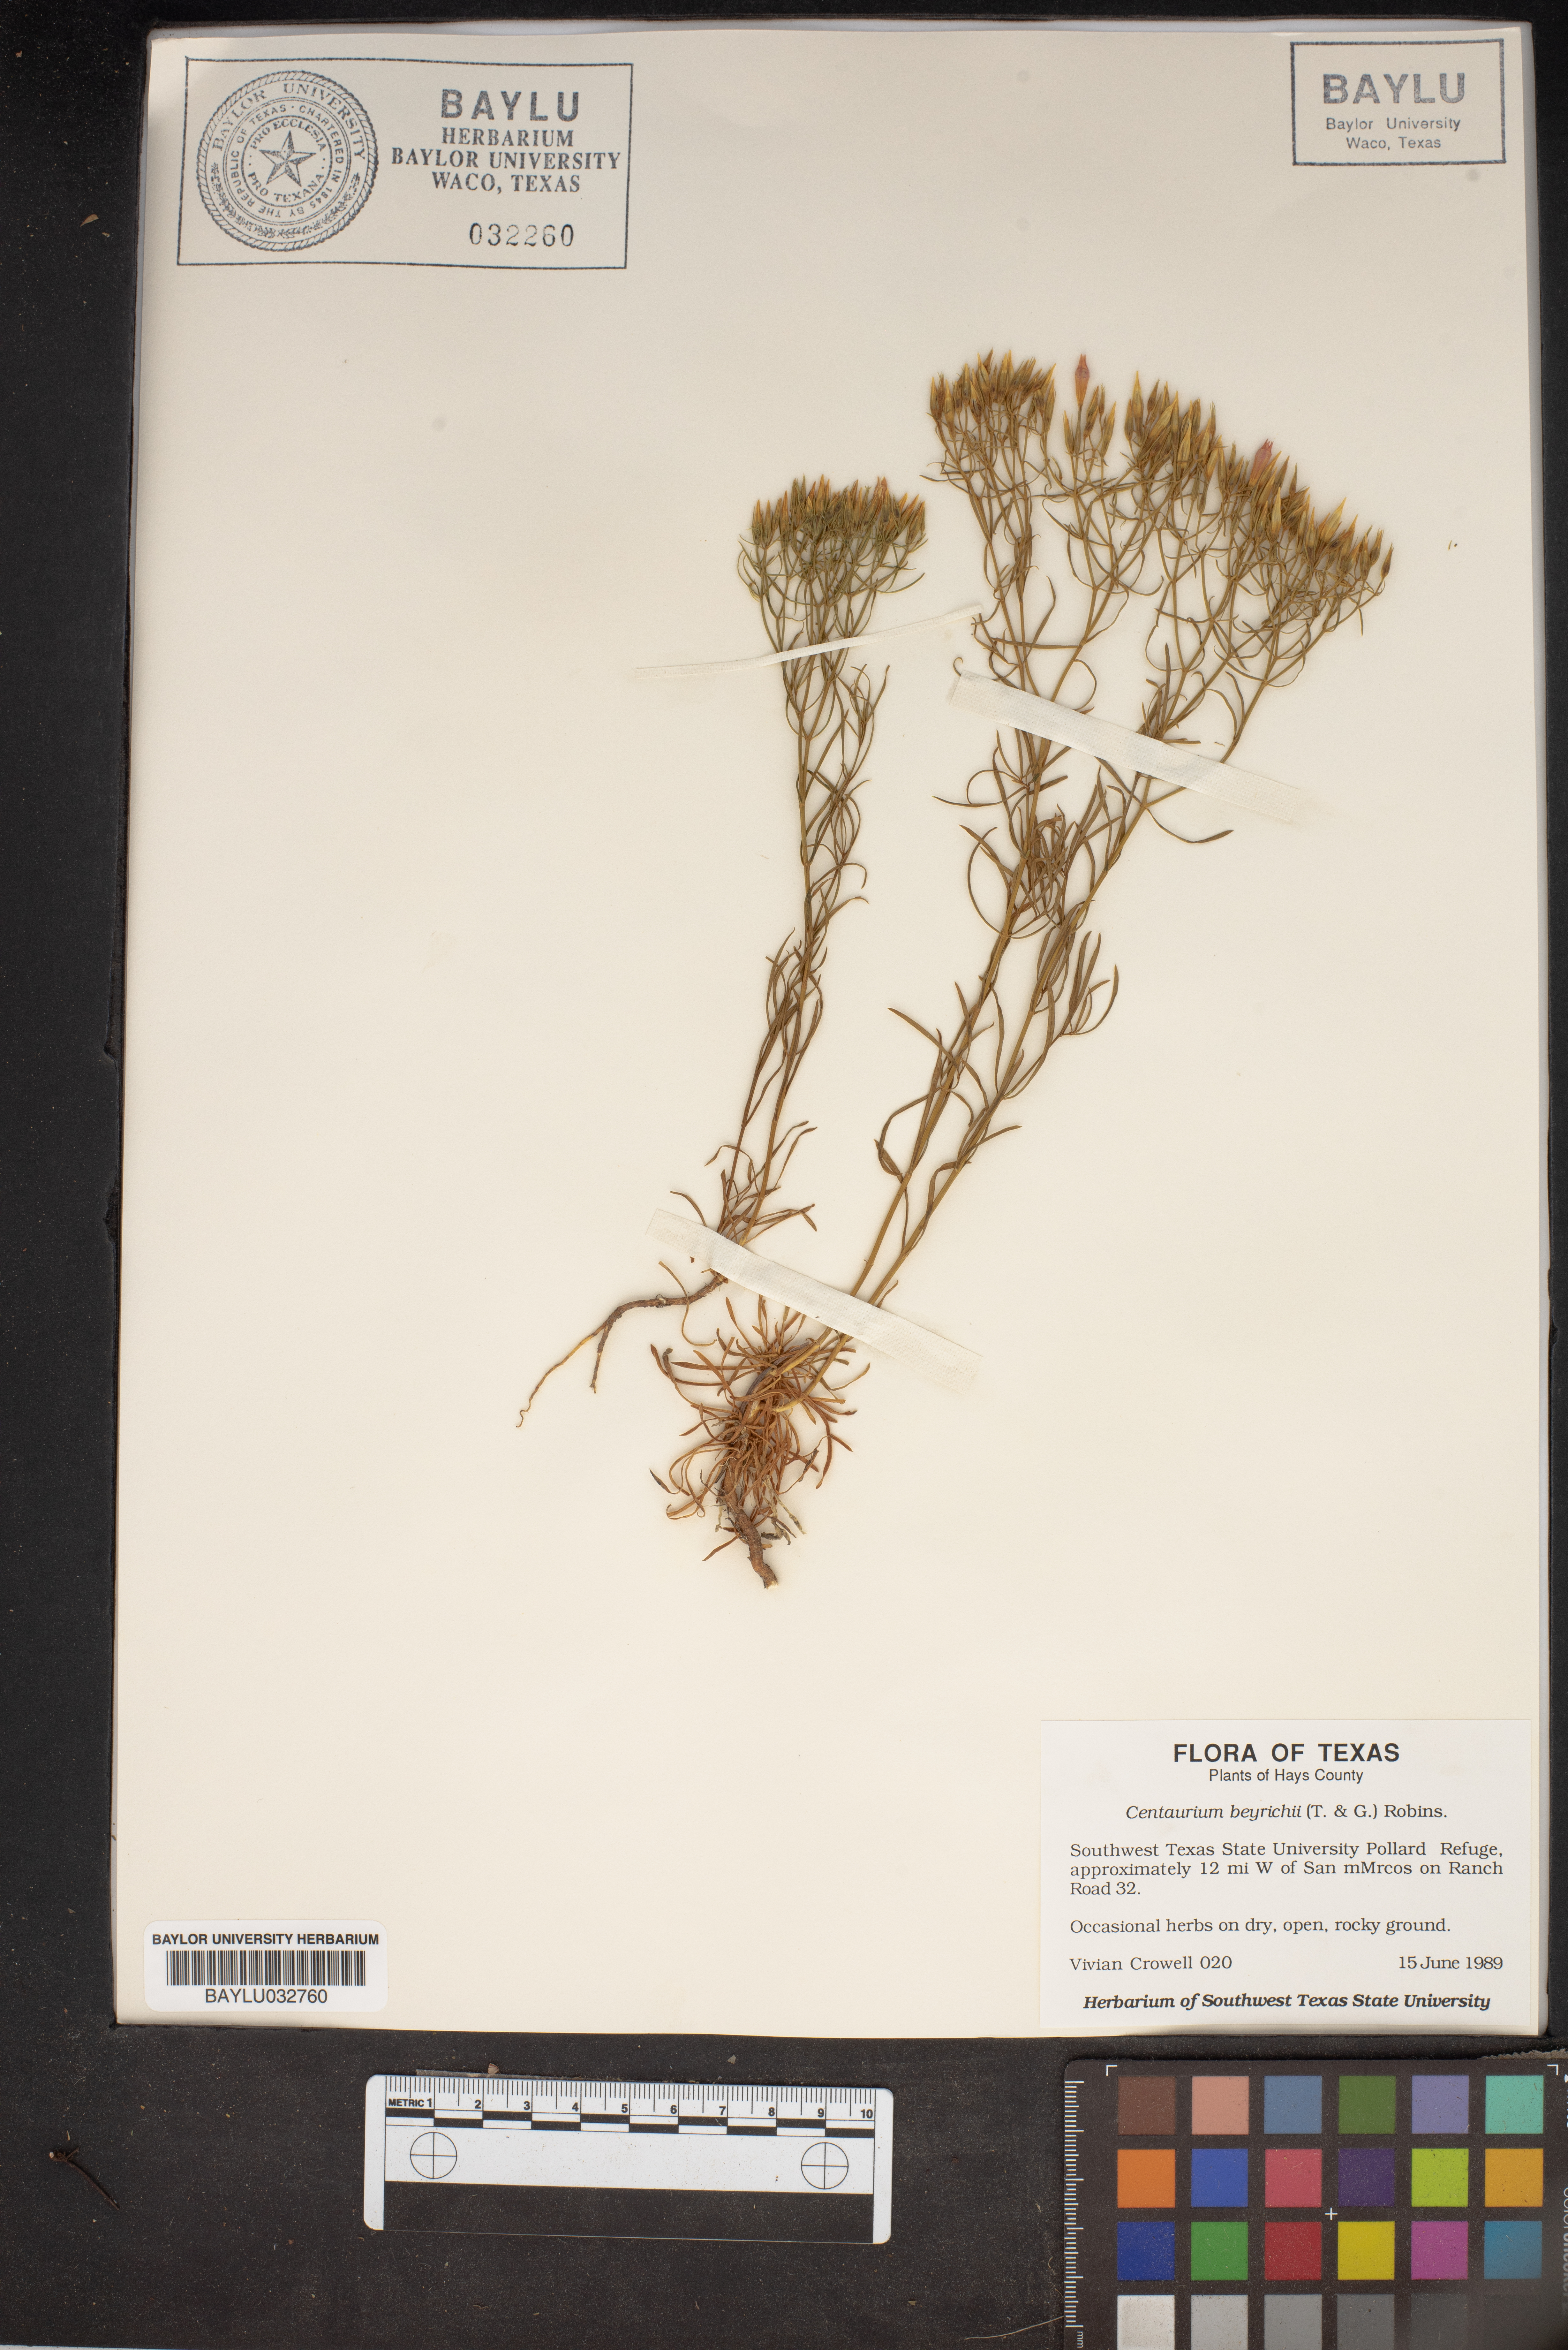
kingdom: Plantae
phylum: Tracheophyta
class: Magnoliopsida
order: Gentianales
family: Gentianaceae
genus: Zeltnera
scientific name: Zeltnera beyrichii
